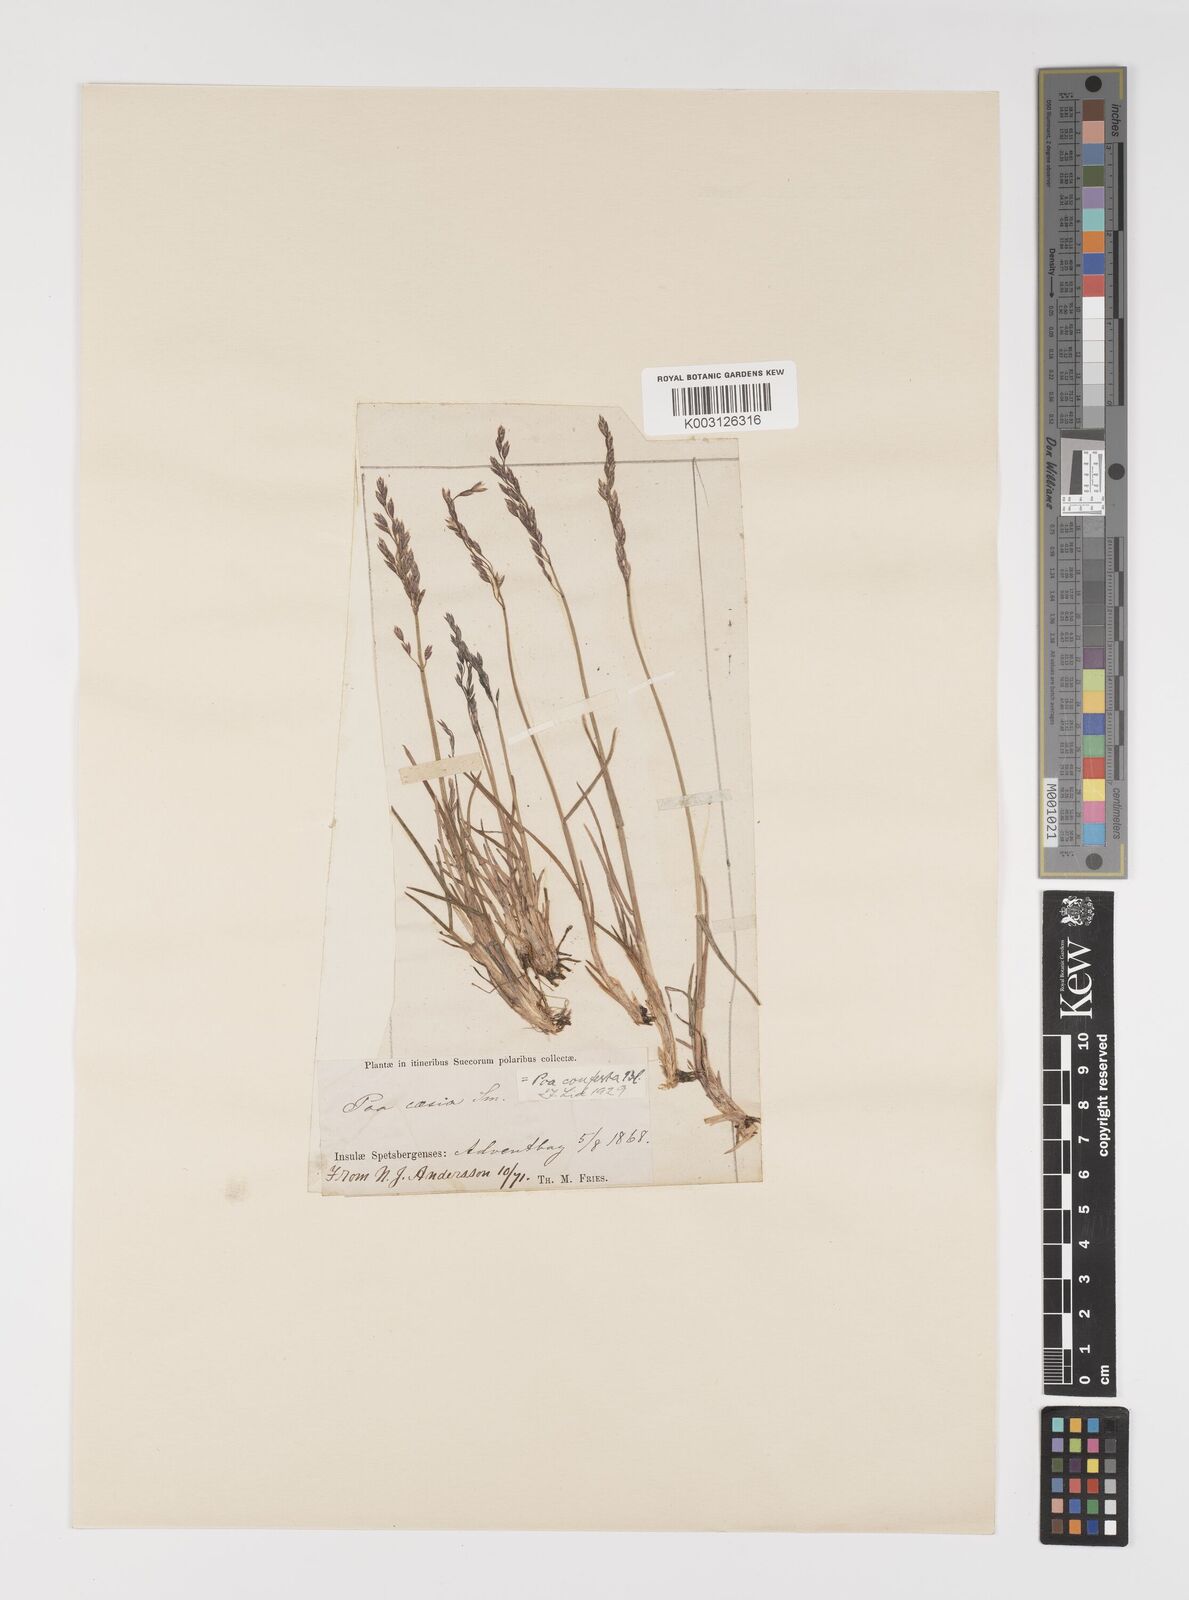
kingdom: Plantae
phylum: Tracheophyta
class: Liliopsida
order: Poales
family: Poaceae
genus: Poa
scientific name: Poa glauca
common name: Glaucous bluegrass
